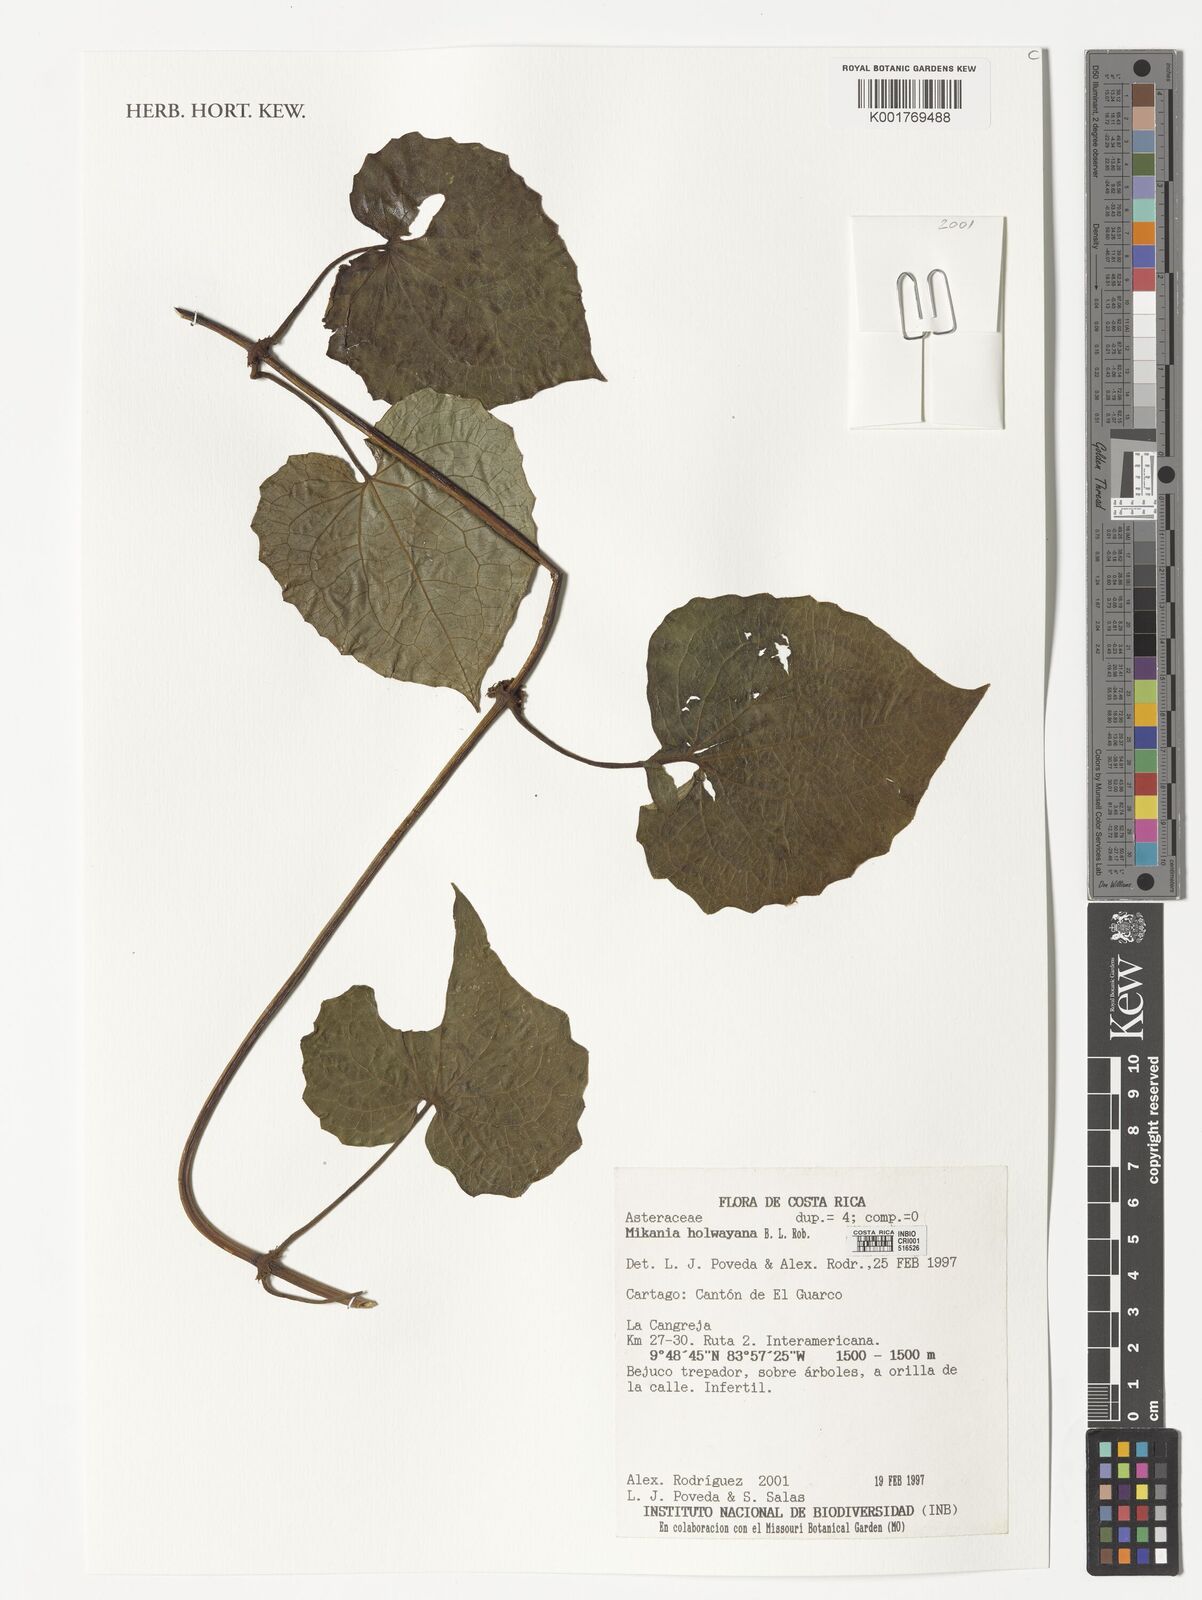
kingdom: Plantae
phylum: Tracheophyta
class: Magnoliopsida
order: Asterales
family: Asteraceae
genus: Mikania
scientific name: Mikania holwayana
